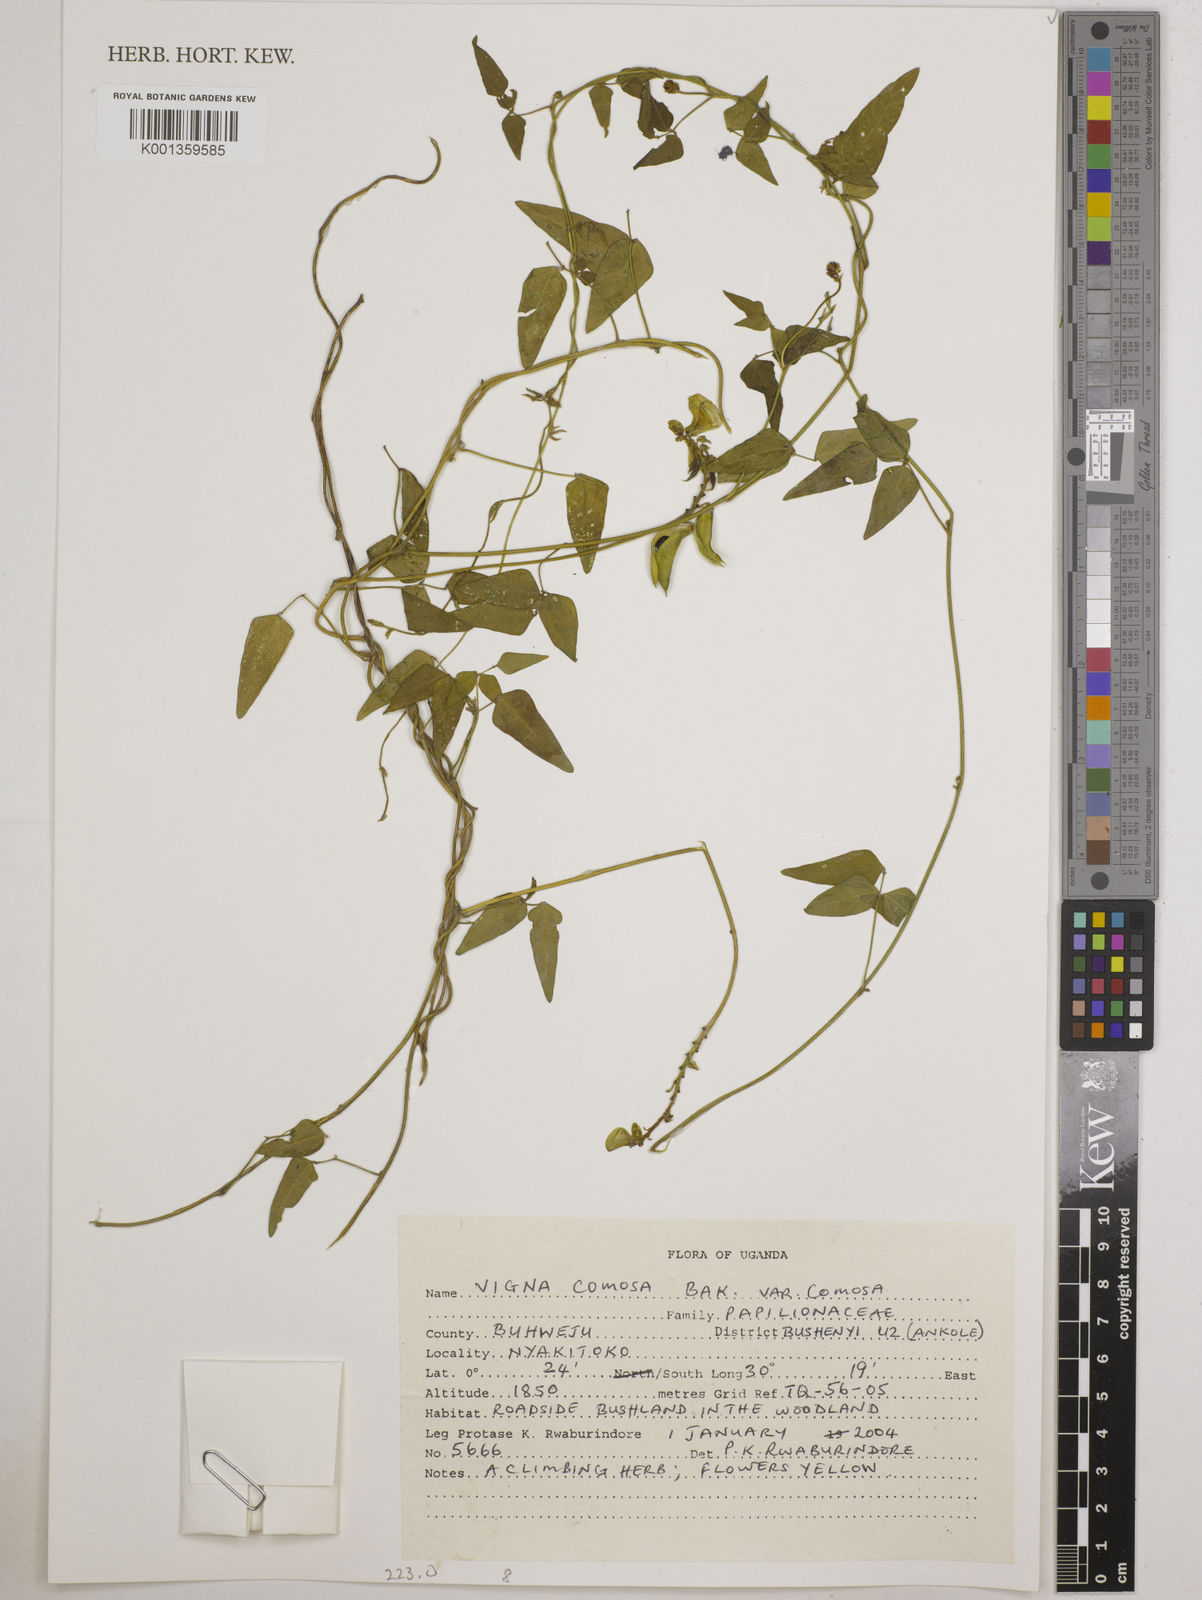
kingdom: Plantae
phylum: Tracheophyta
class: Magnoliopsida
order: Fabales
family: Fabaceae
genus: Vigna
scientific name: Vigna
